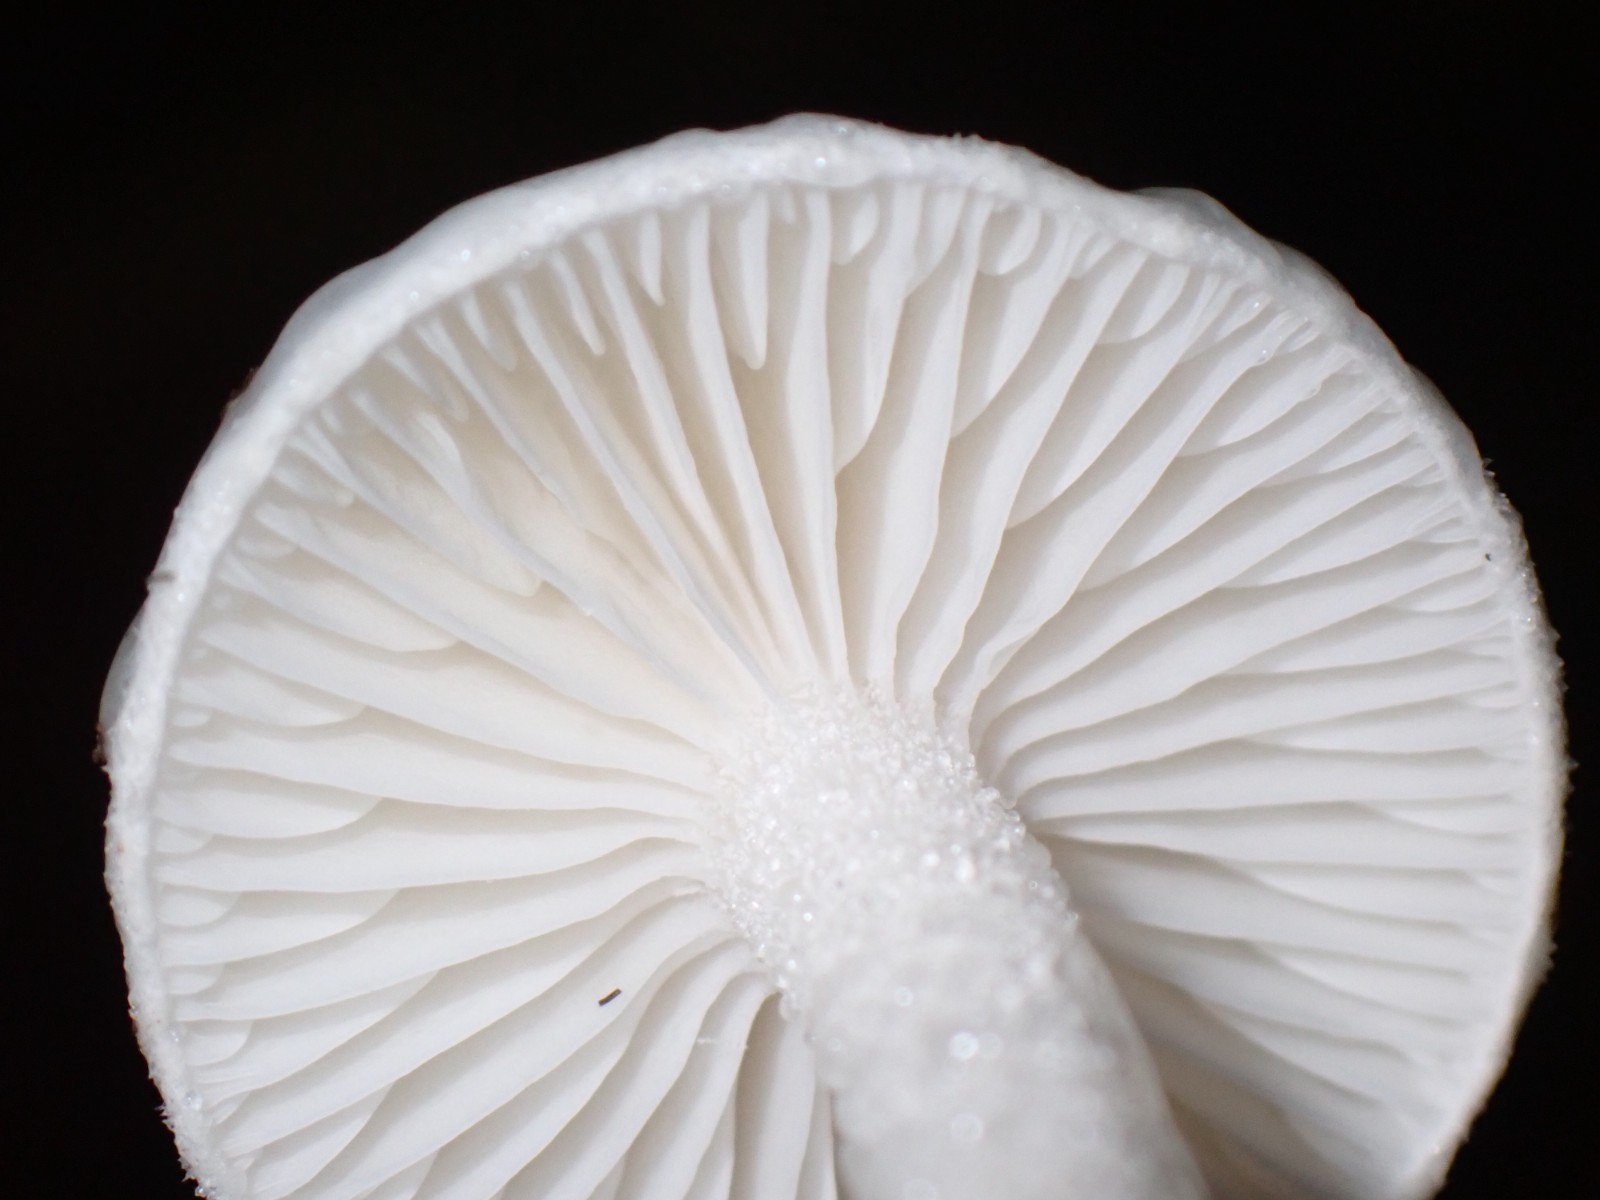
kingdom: Fungi
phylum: Basidiomycota
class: Agaricomycetes
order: Agaricales
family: Hygrophoraceae
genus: Hygrophorus
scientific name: Hygrophorus eburneus
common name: elfenbens-sneglehat
